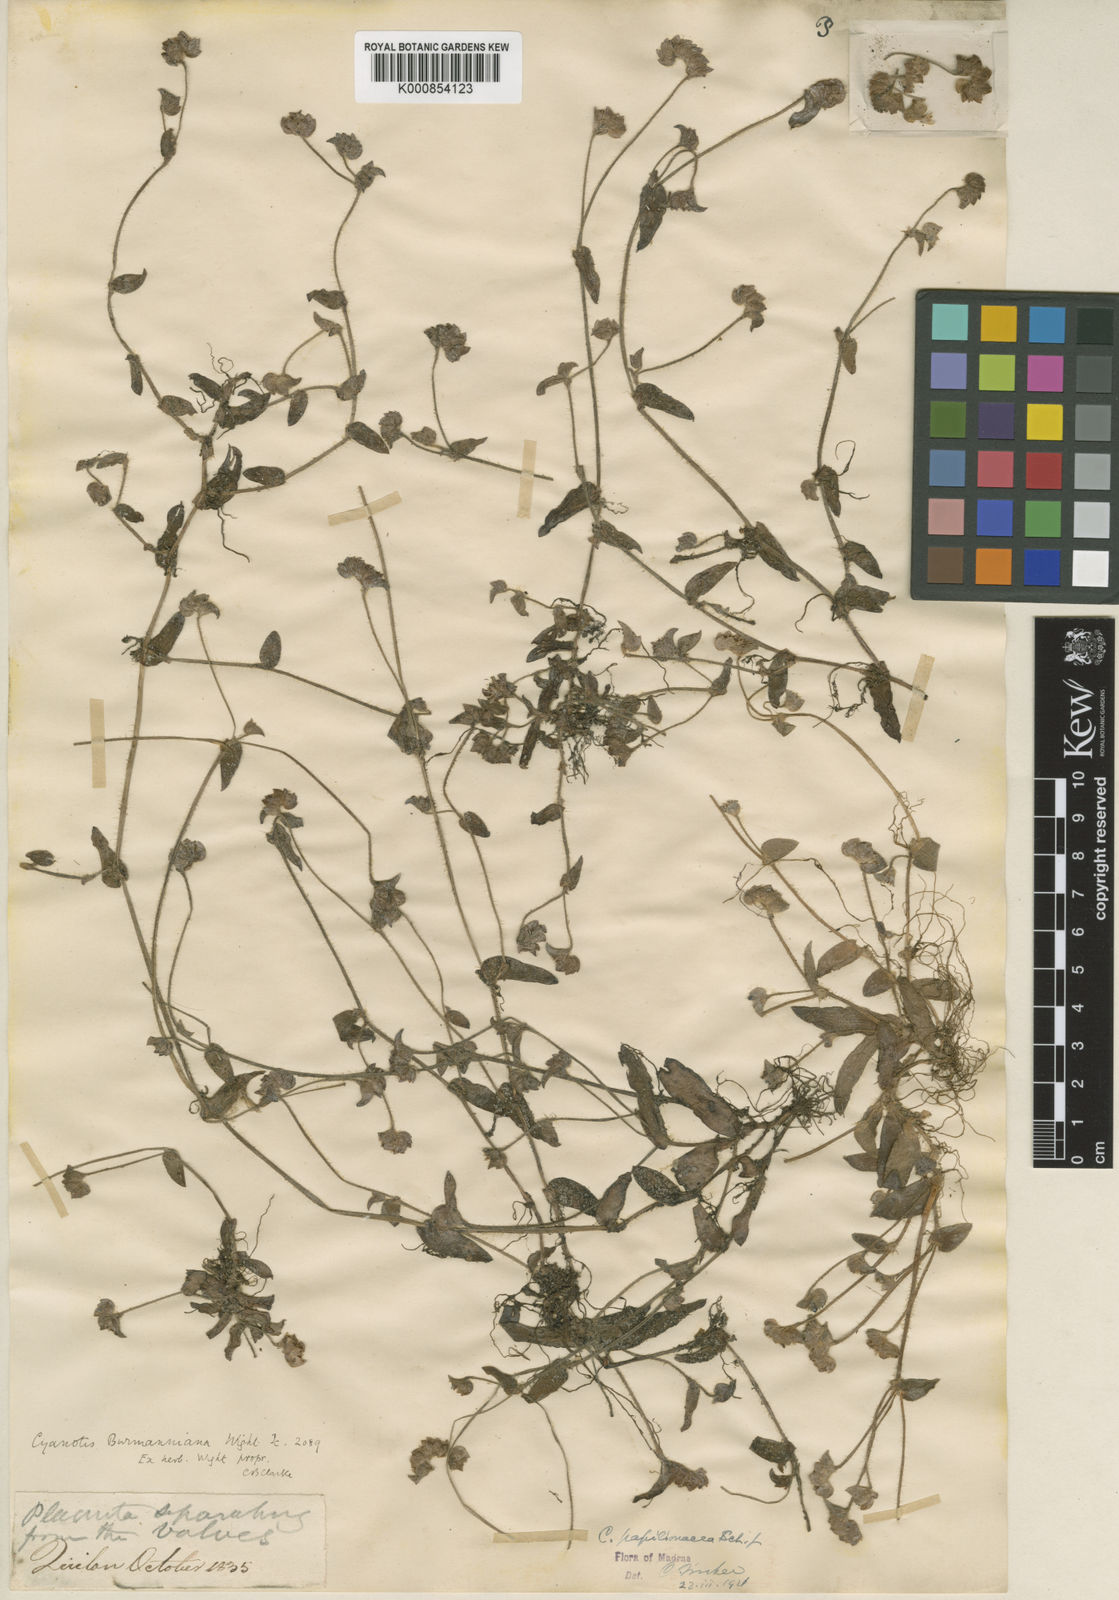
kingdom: Plantae
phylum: Tracheophyta
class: Liliopsida
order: Commelinales
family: Commelinaceae
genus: Cyanotis
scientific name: Cyanotis cristata
